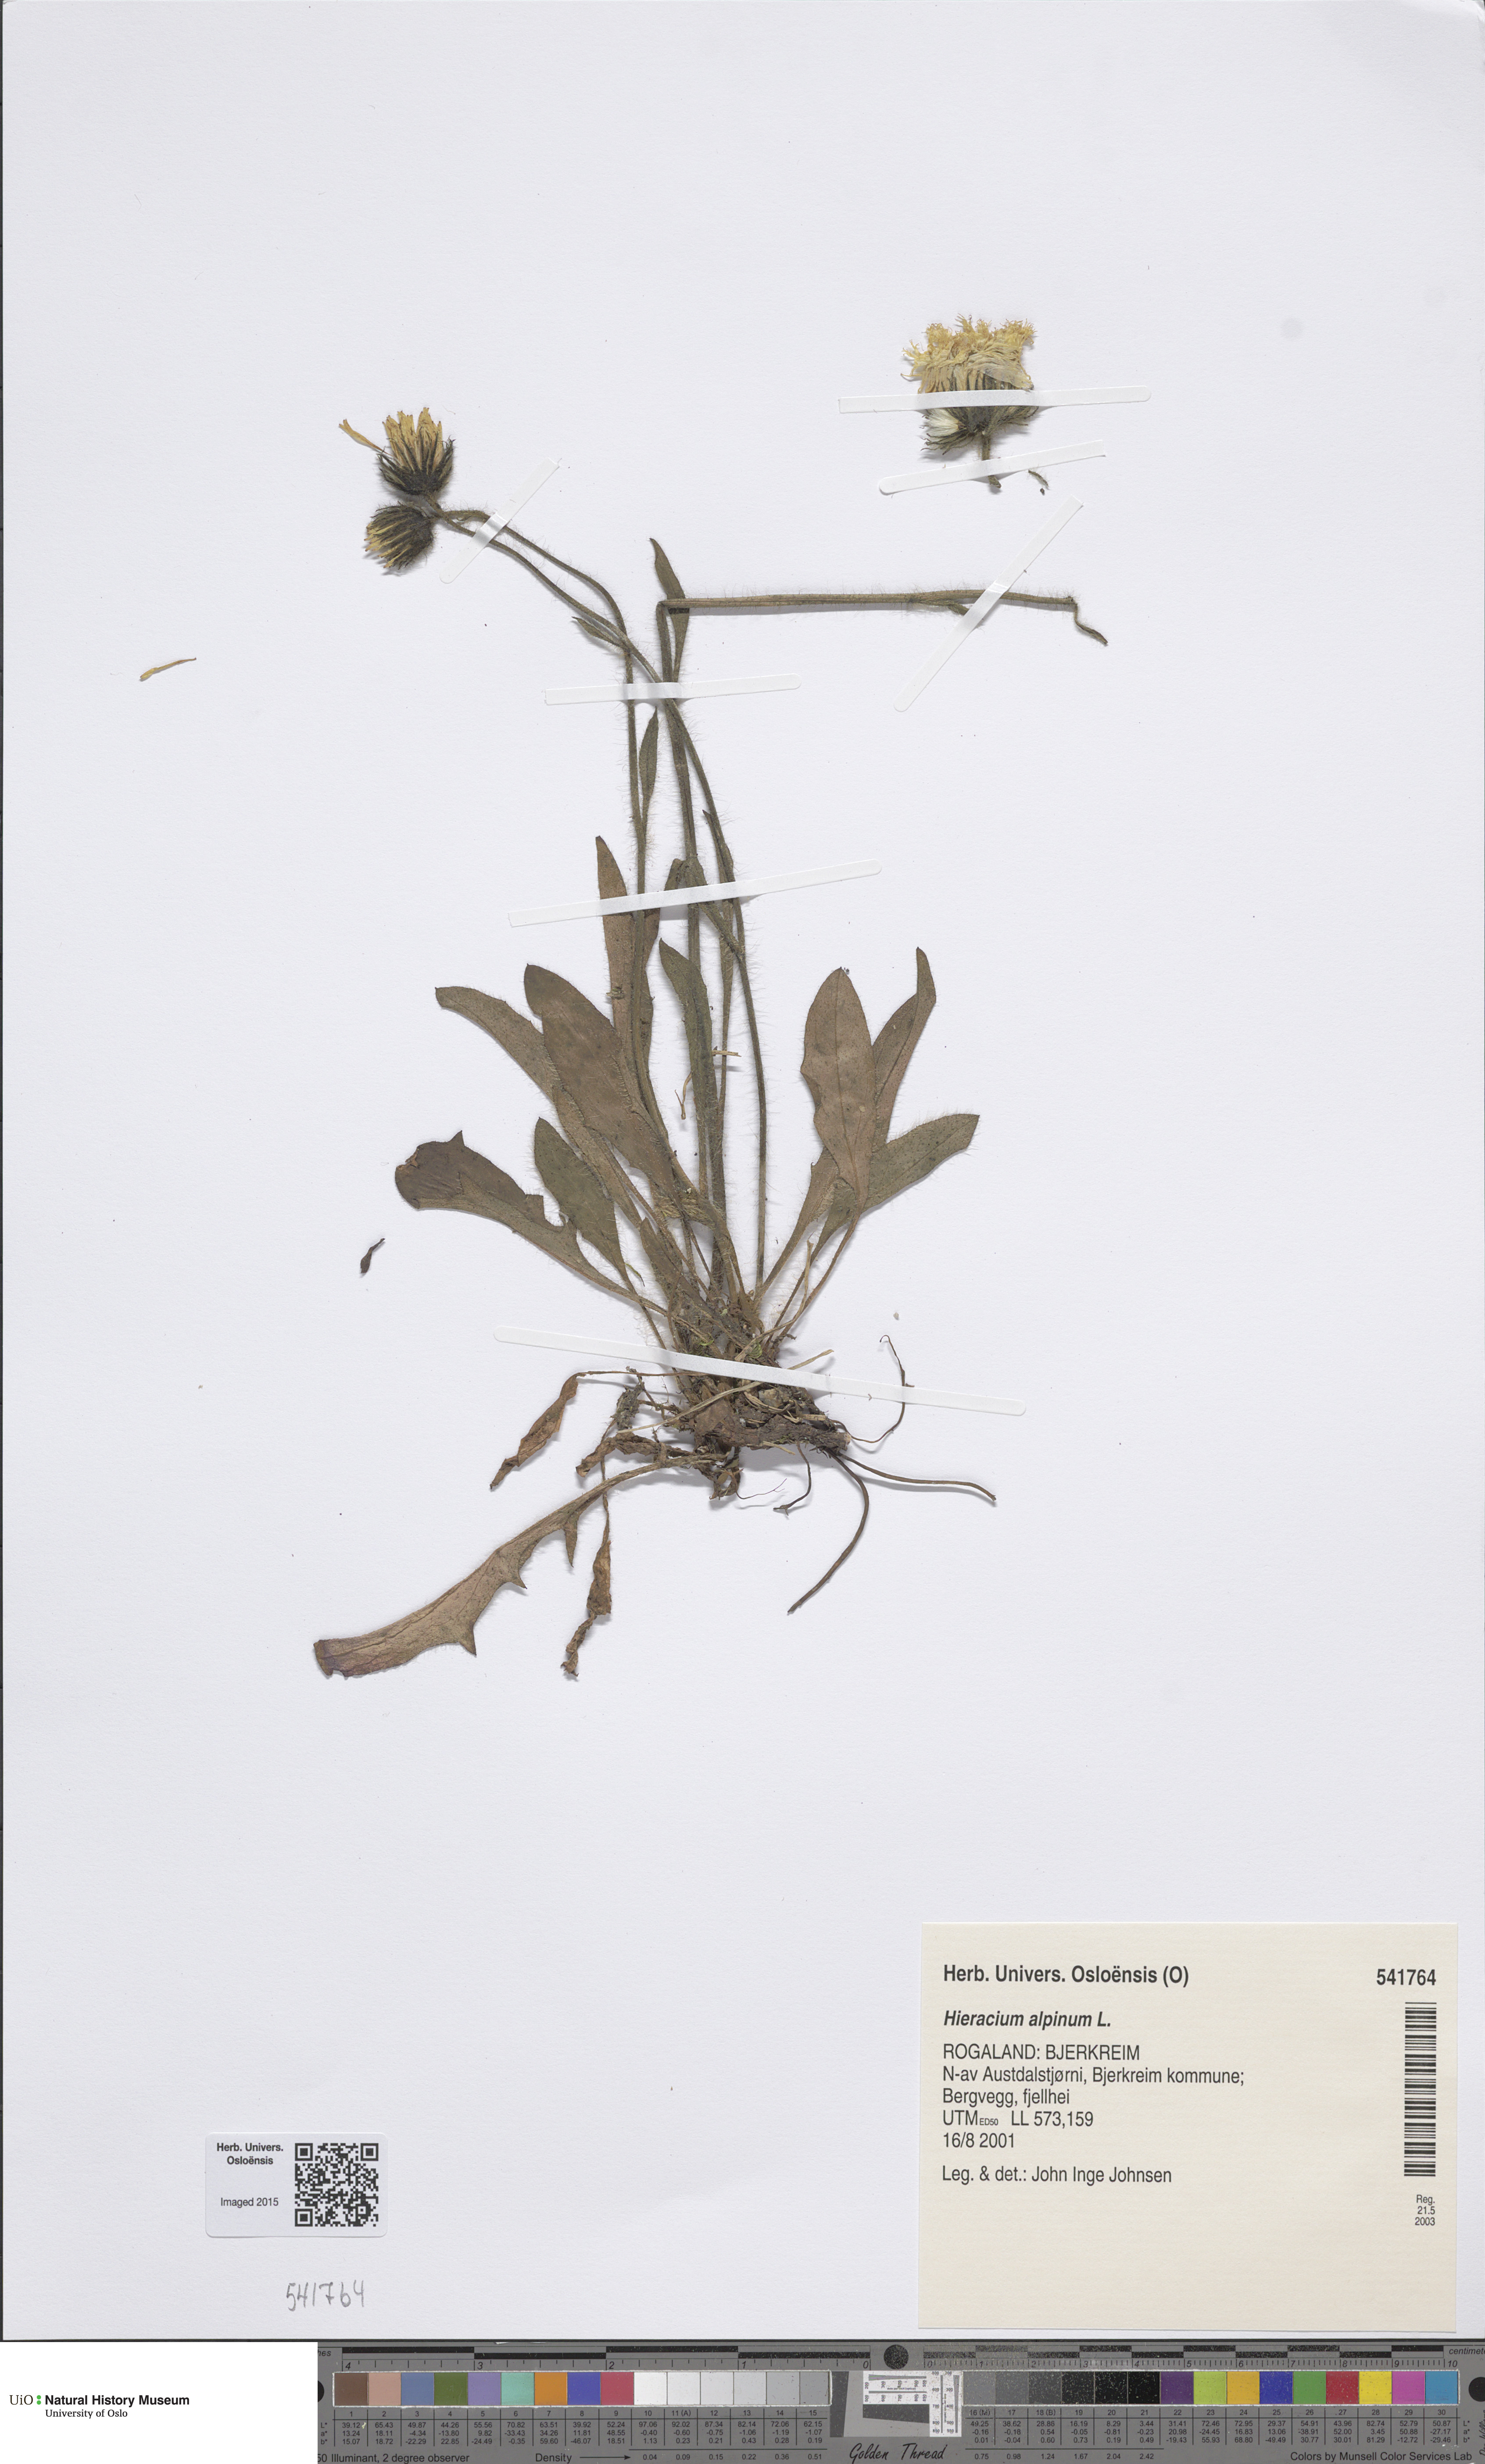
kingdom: Plantae
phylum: Tracheophyta
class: Magnoliopsida
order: Asterales
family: Asteraceae
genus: Hieracium
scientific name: Hieracium alpinum
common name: Alpine hawkweed
